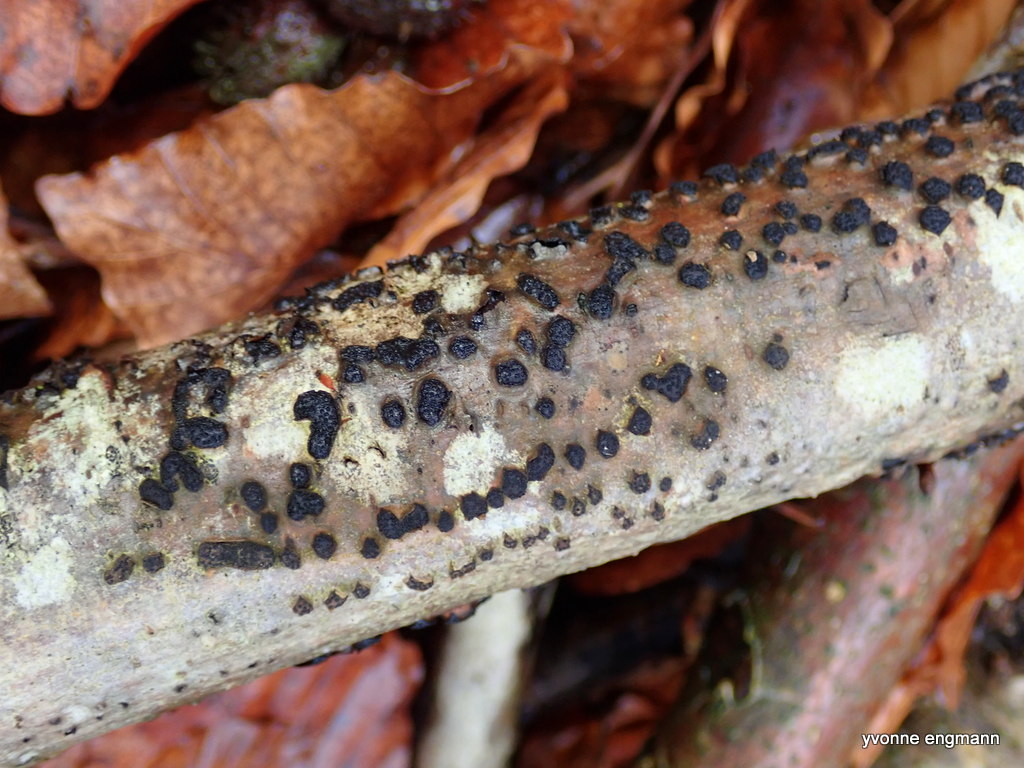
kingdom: Fungi
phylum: Ascomycota
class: Sordariomycetes
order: Xylariales
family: Diatrypaceae
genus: Diatrypella
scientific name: Diatrypella quercina
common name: ege-kulskorpe
